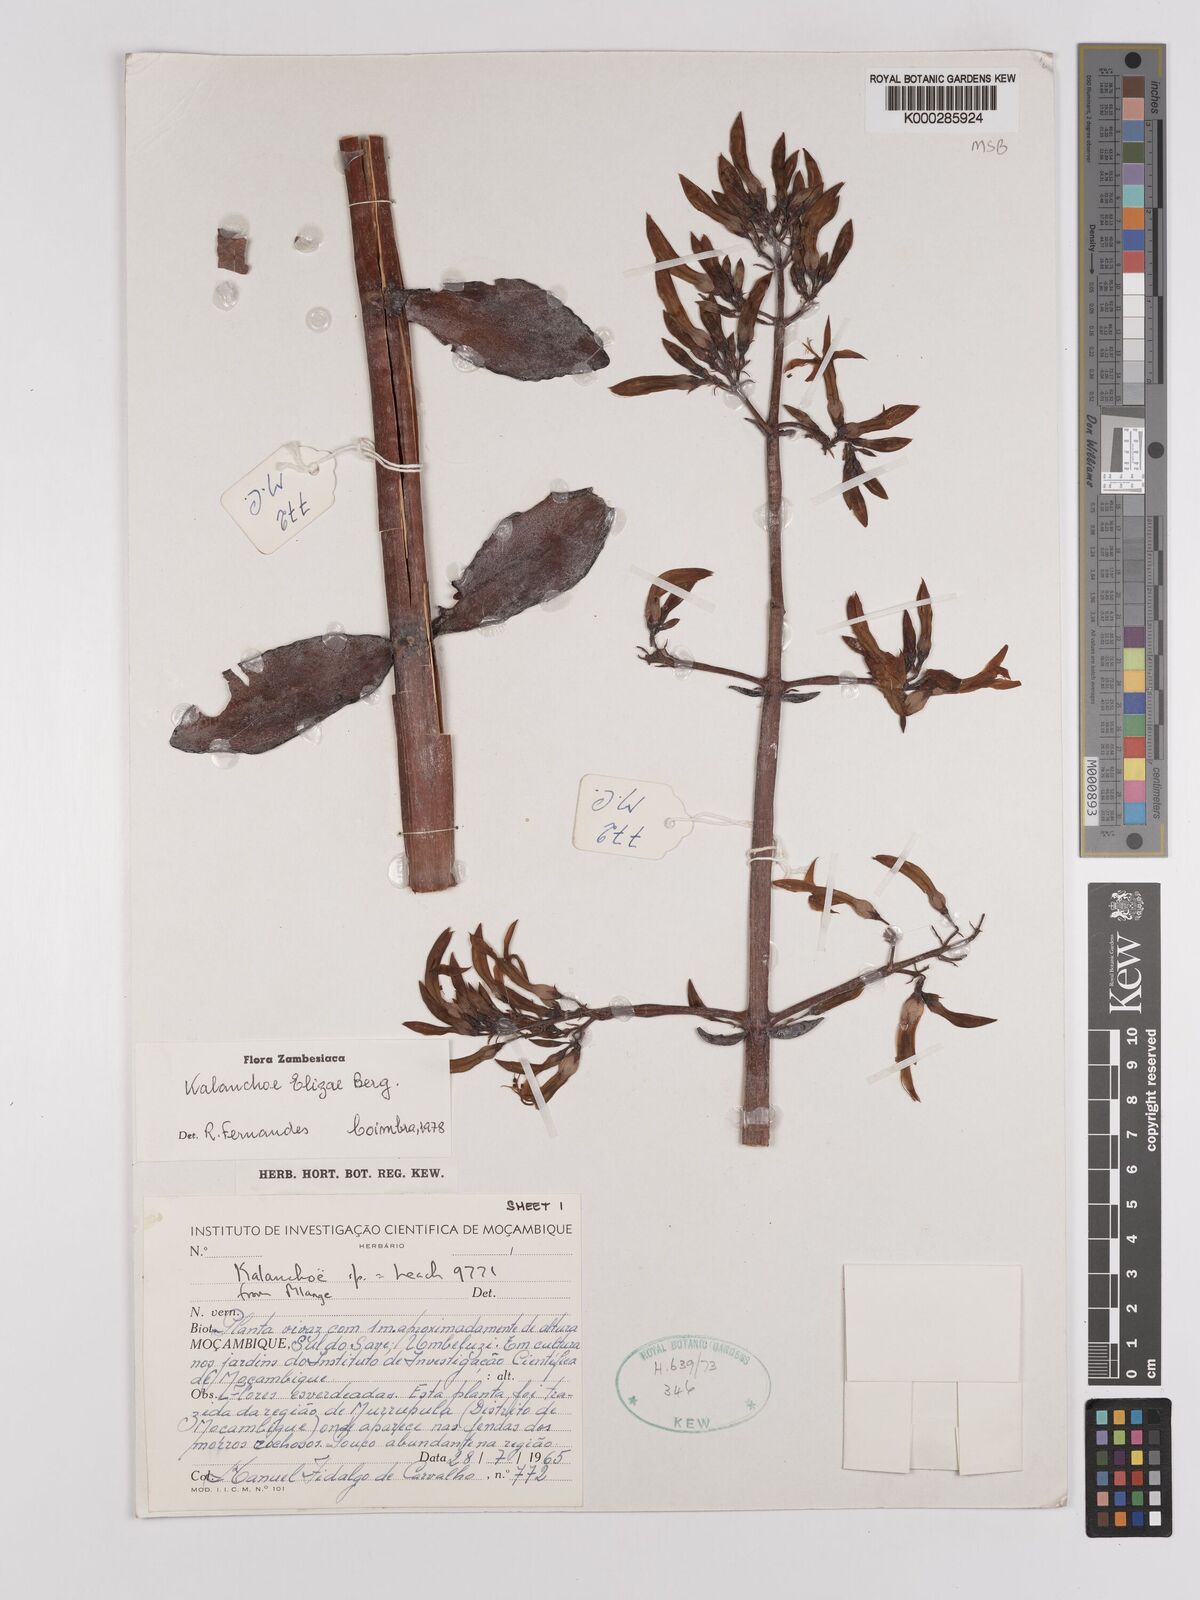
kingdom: Plantae
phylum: Tracheophyta
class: Magnoliopsida
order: Saxifragales
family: Crassulaceae
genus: Kalanchoe
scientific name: Kalanchoe elizae
